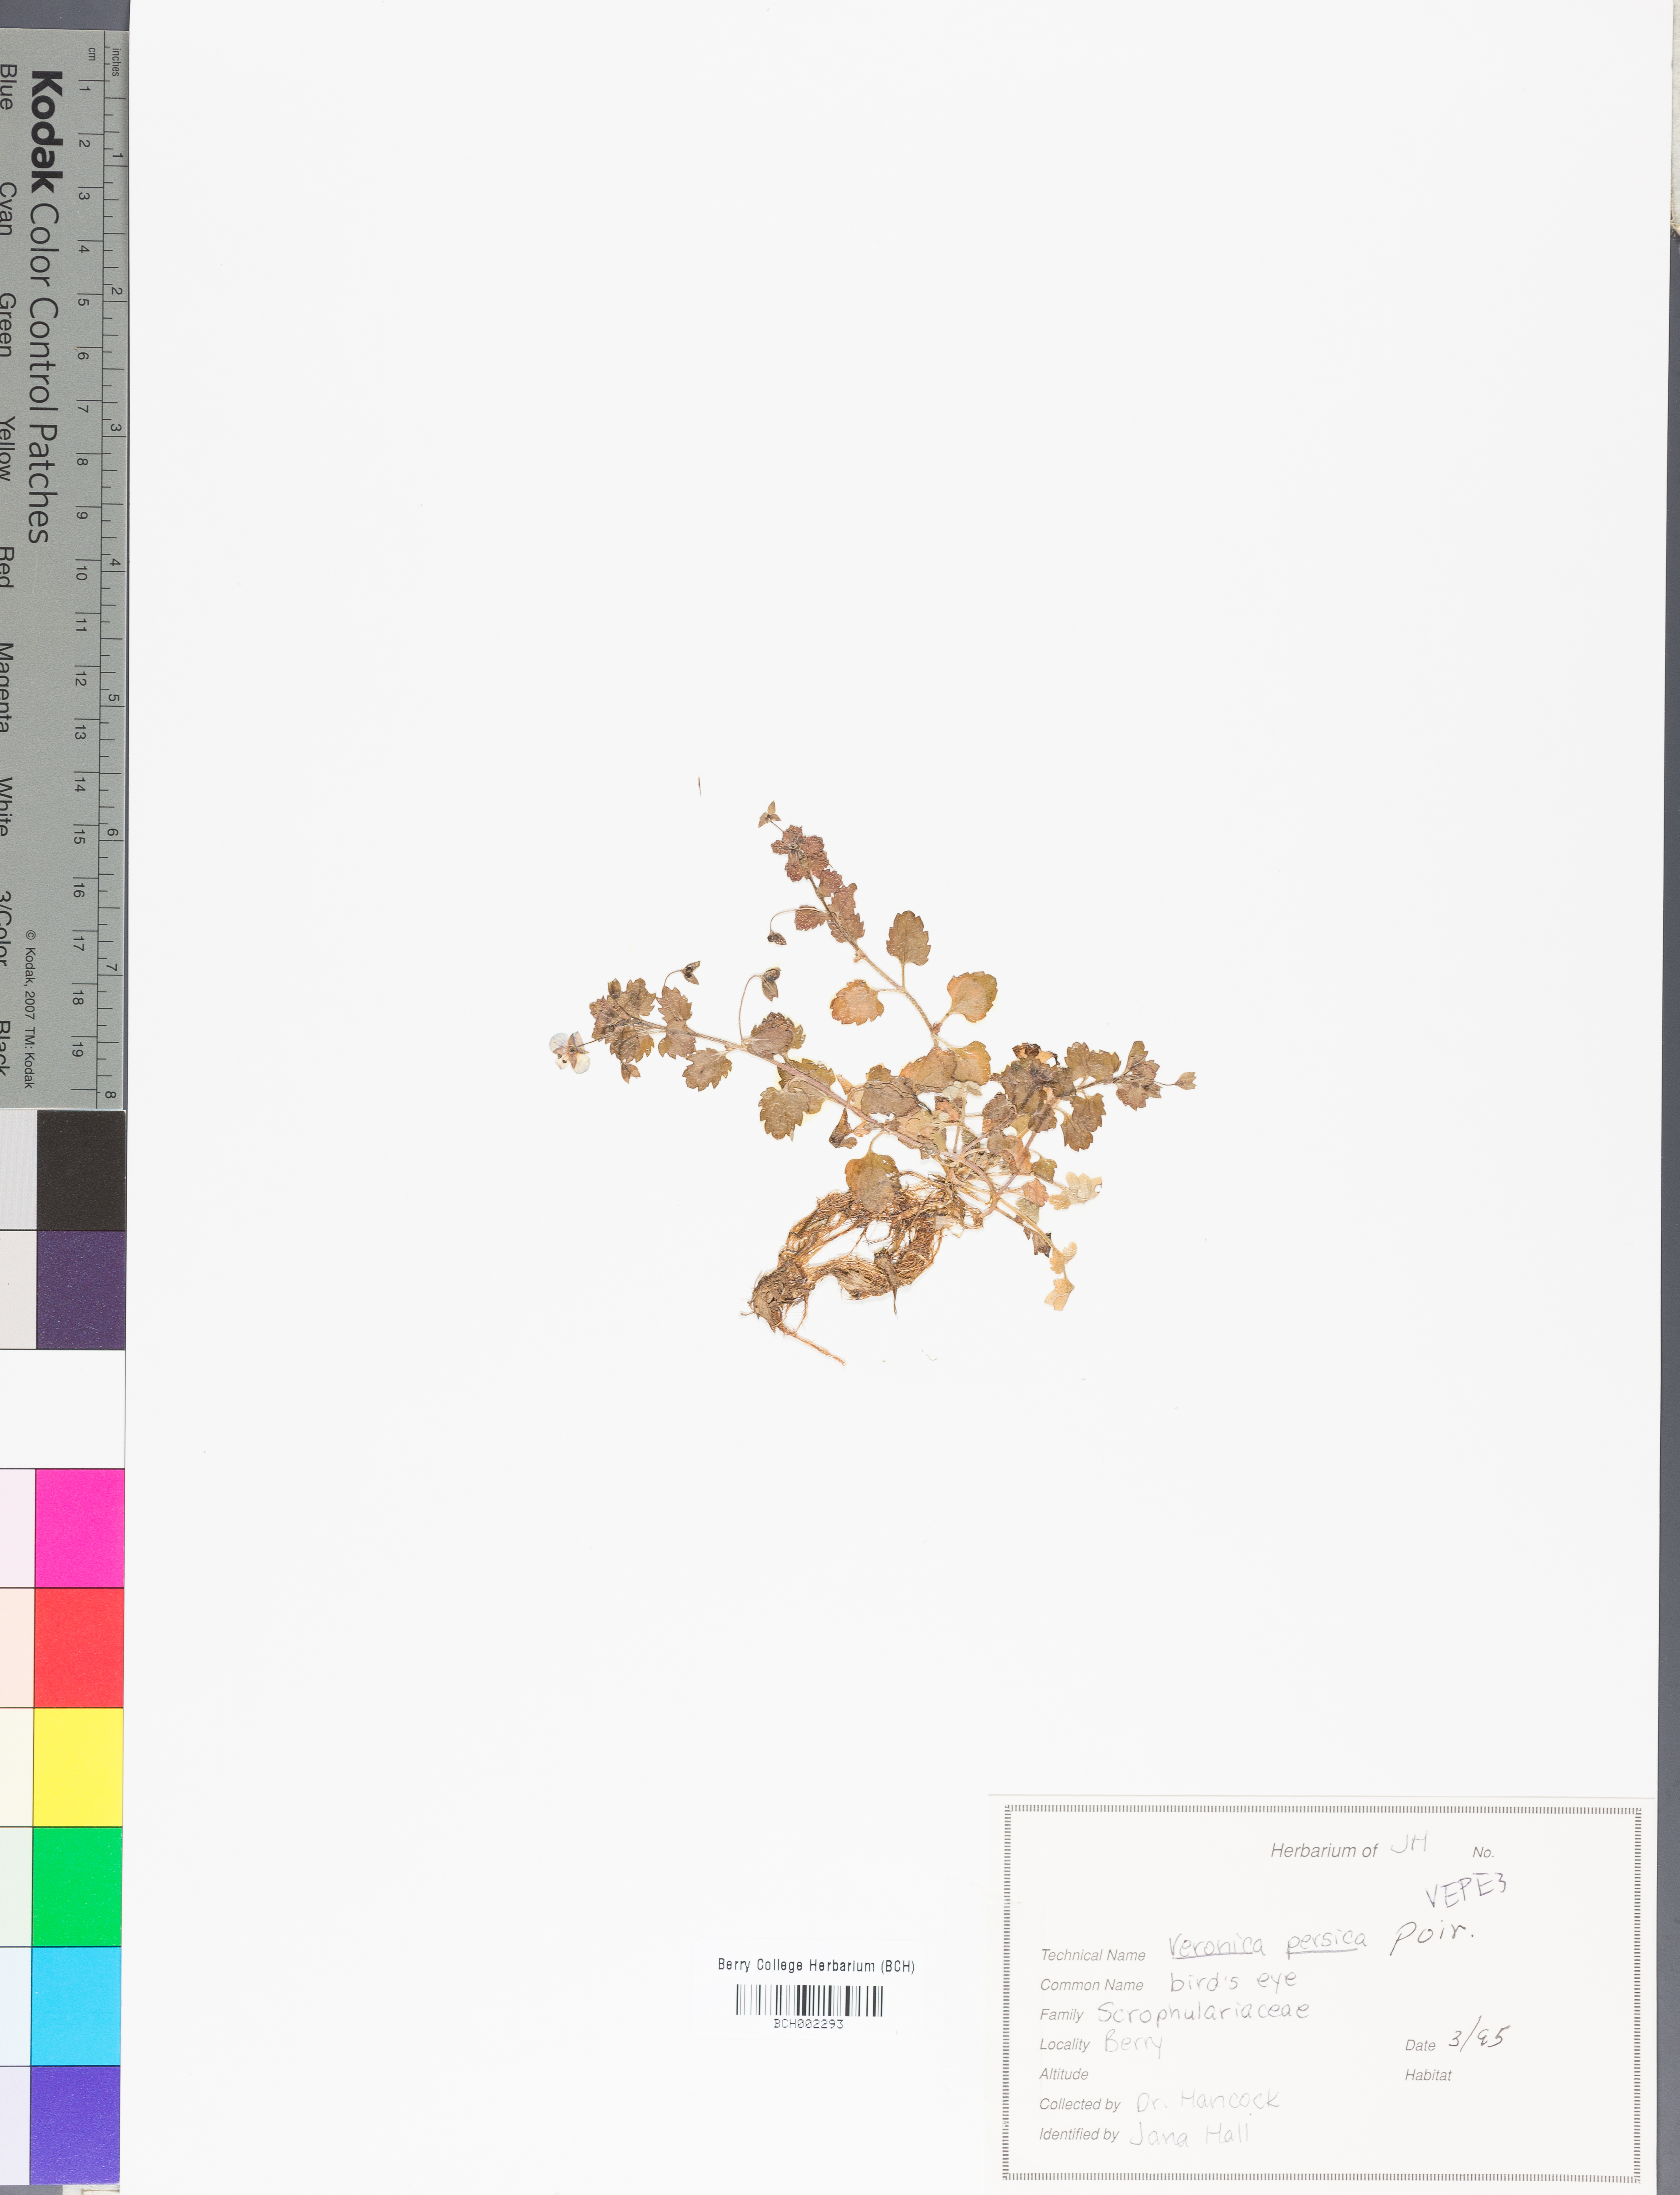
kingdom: Plantae
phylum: Tracheophyta
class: Magnoliopsida
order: Lamiales
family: Plantaginaceae
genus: Veronica
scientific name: Veronica persica
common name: Common field-speedwell
